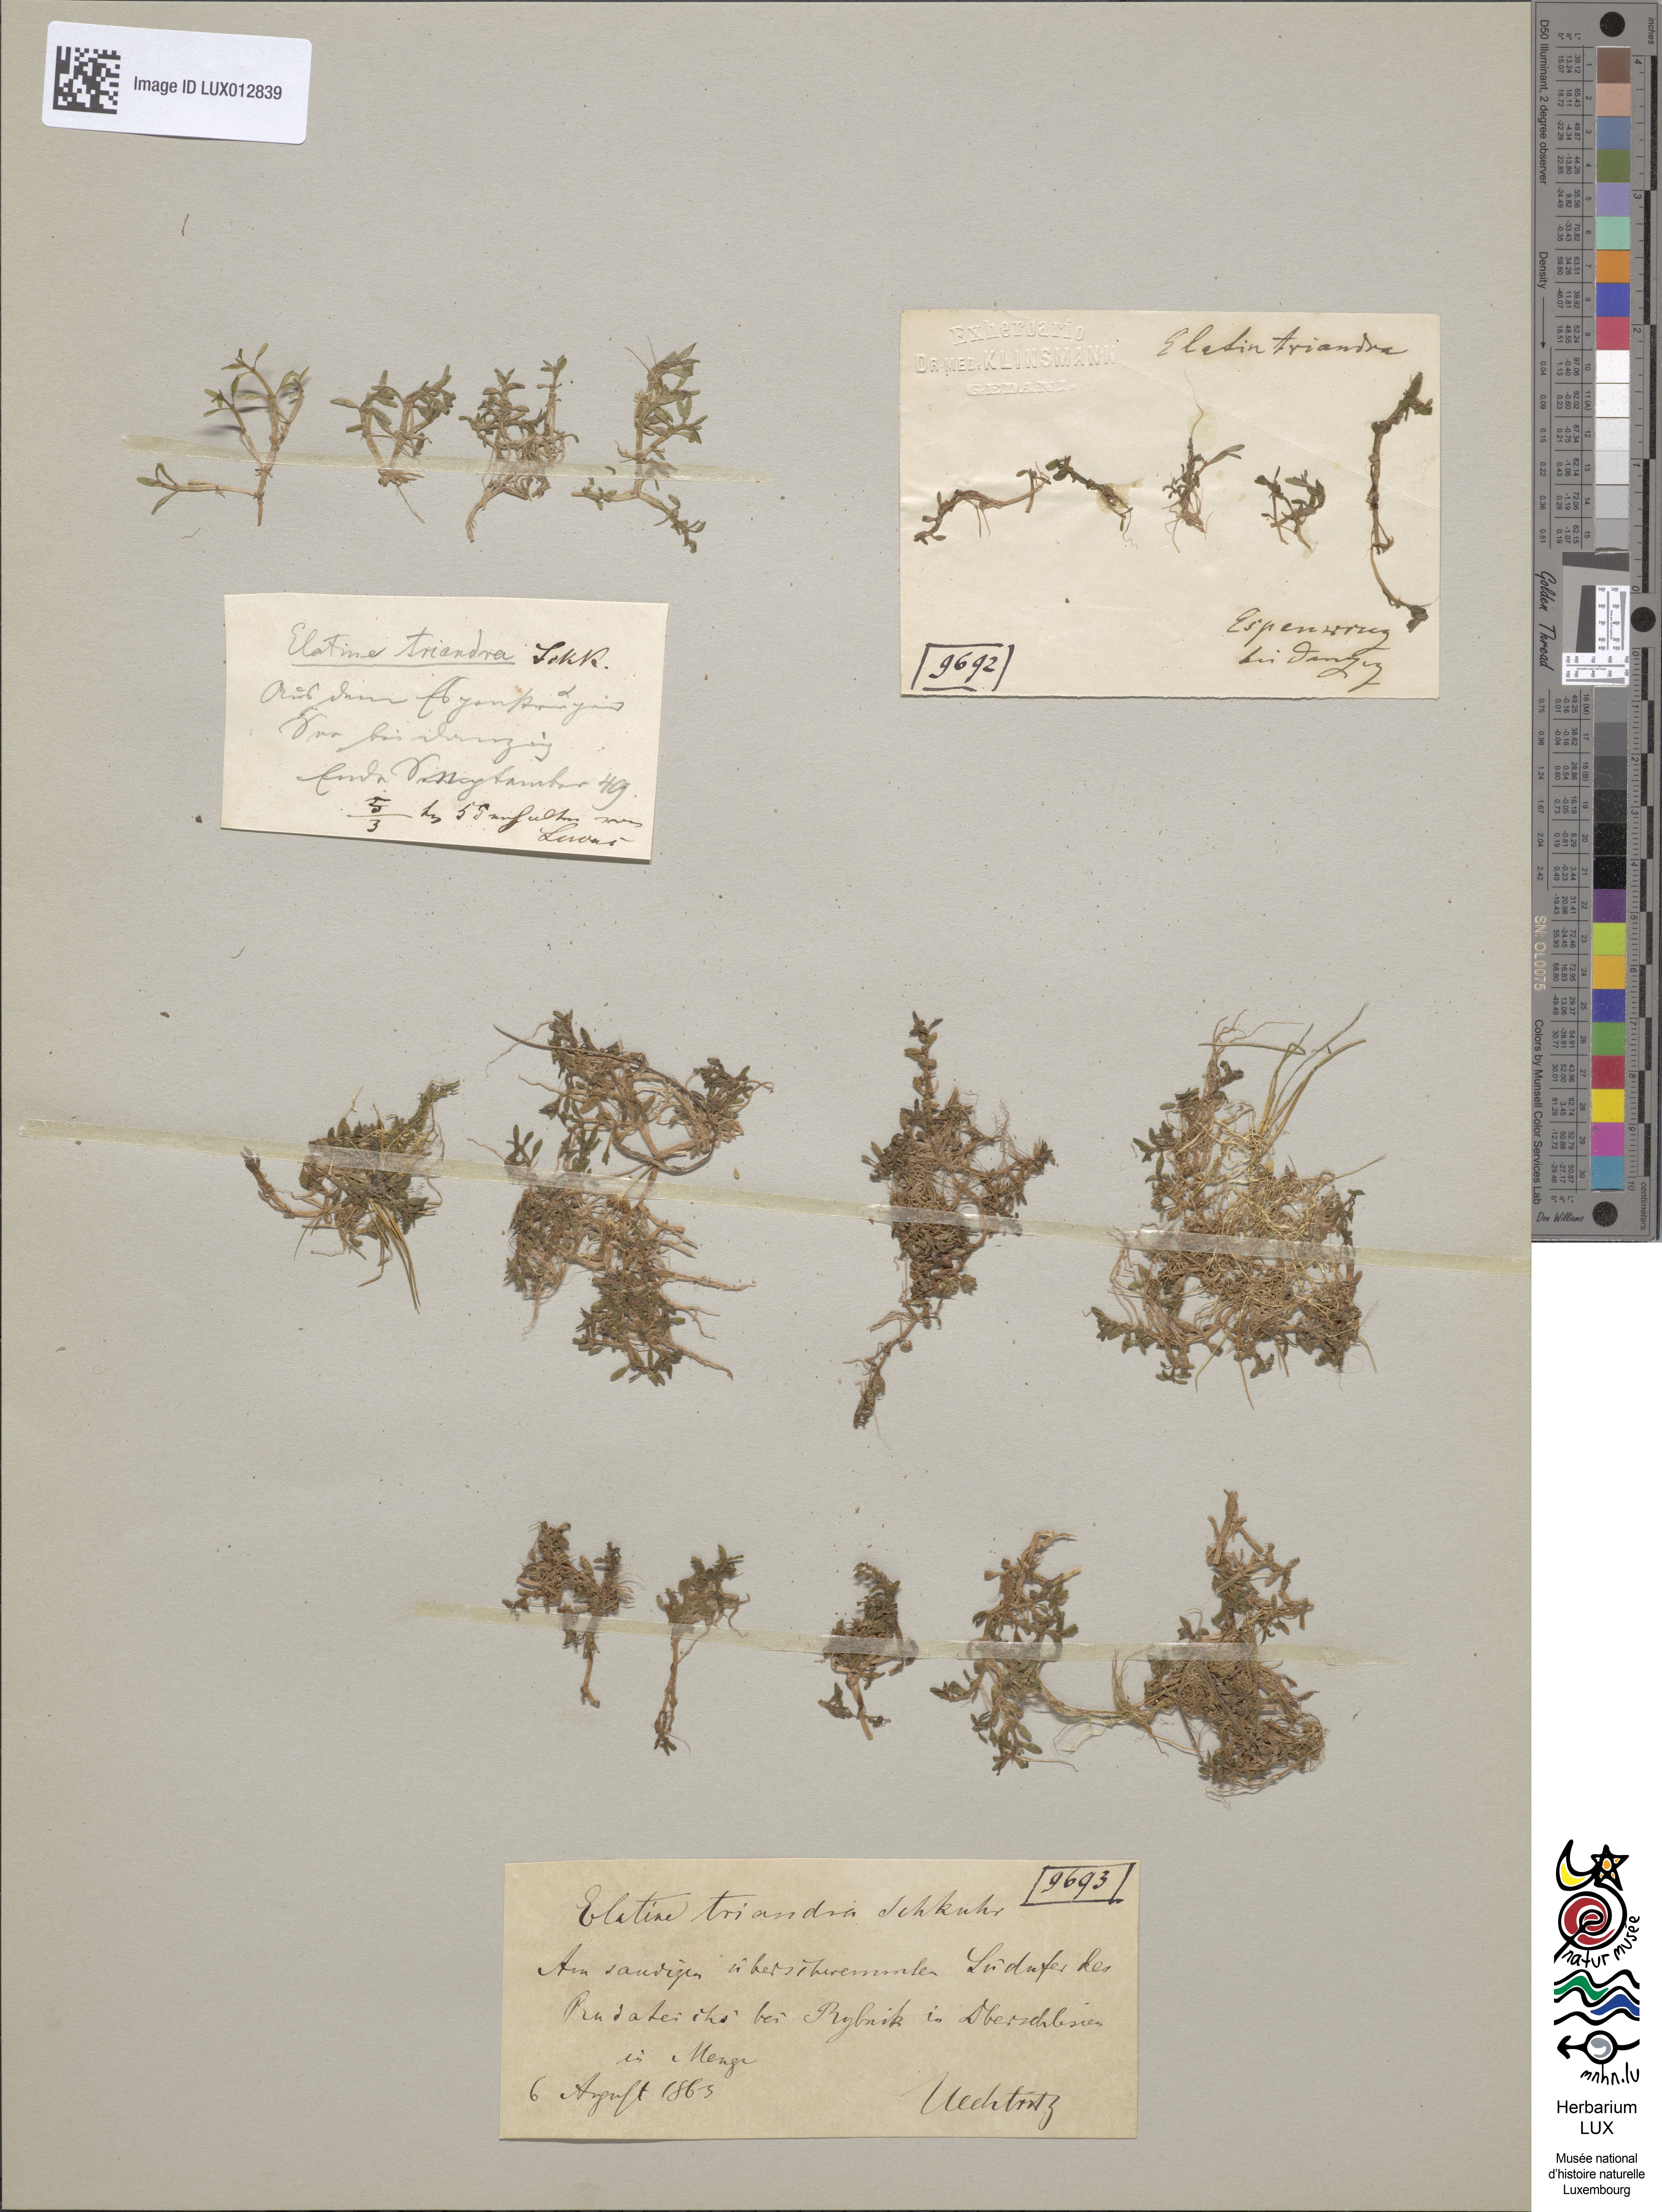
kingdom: Plantae
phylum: Tracheophyta
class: Magnoliopsida
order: Malpighiales
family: Elatinaceae
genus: Elatine
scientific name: Elatine triandra
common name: Three-stamened waterwort
